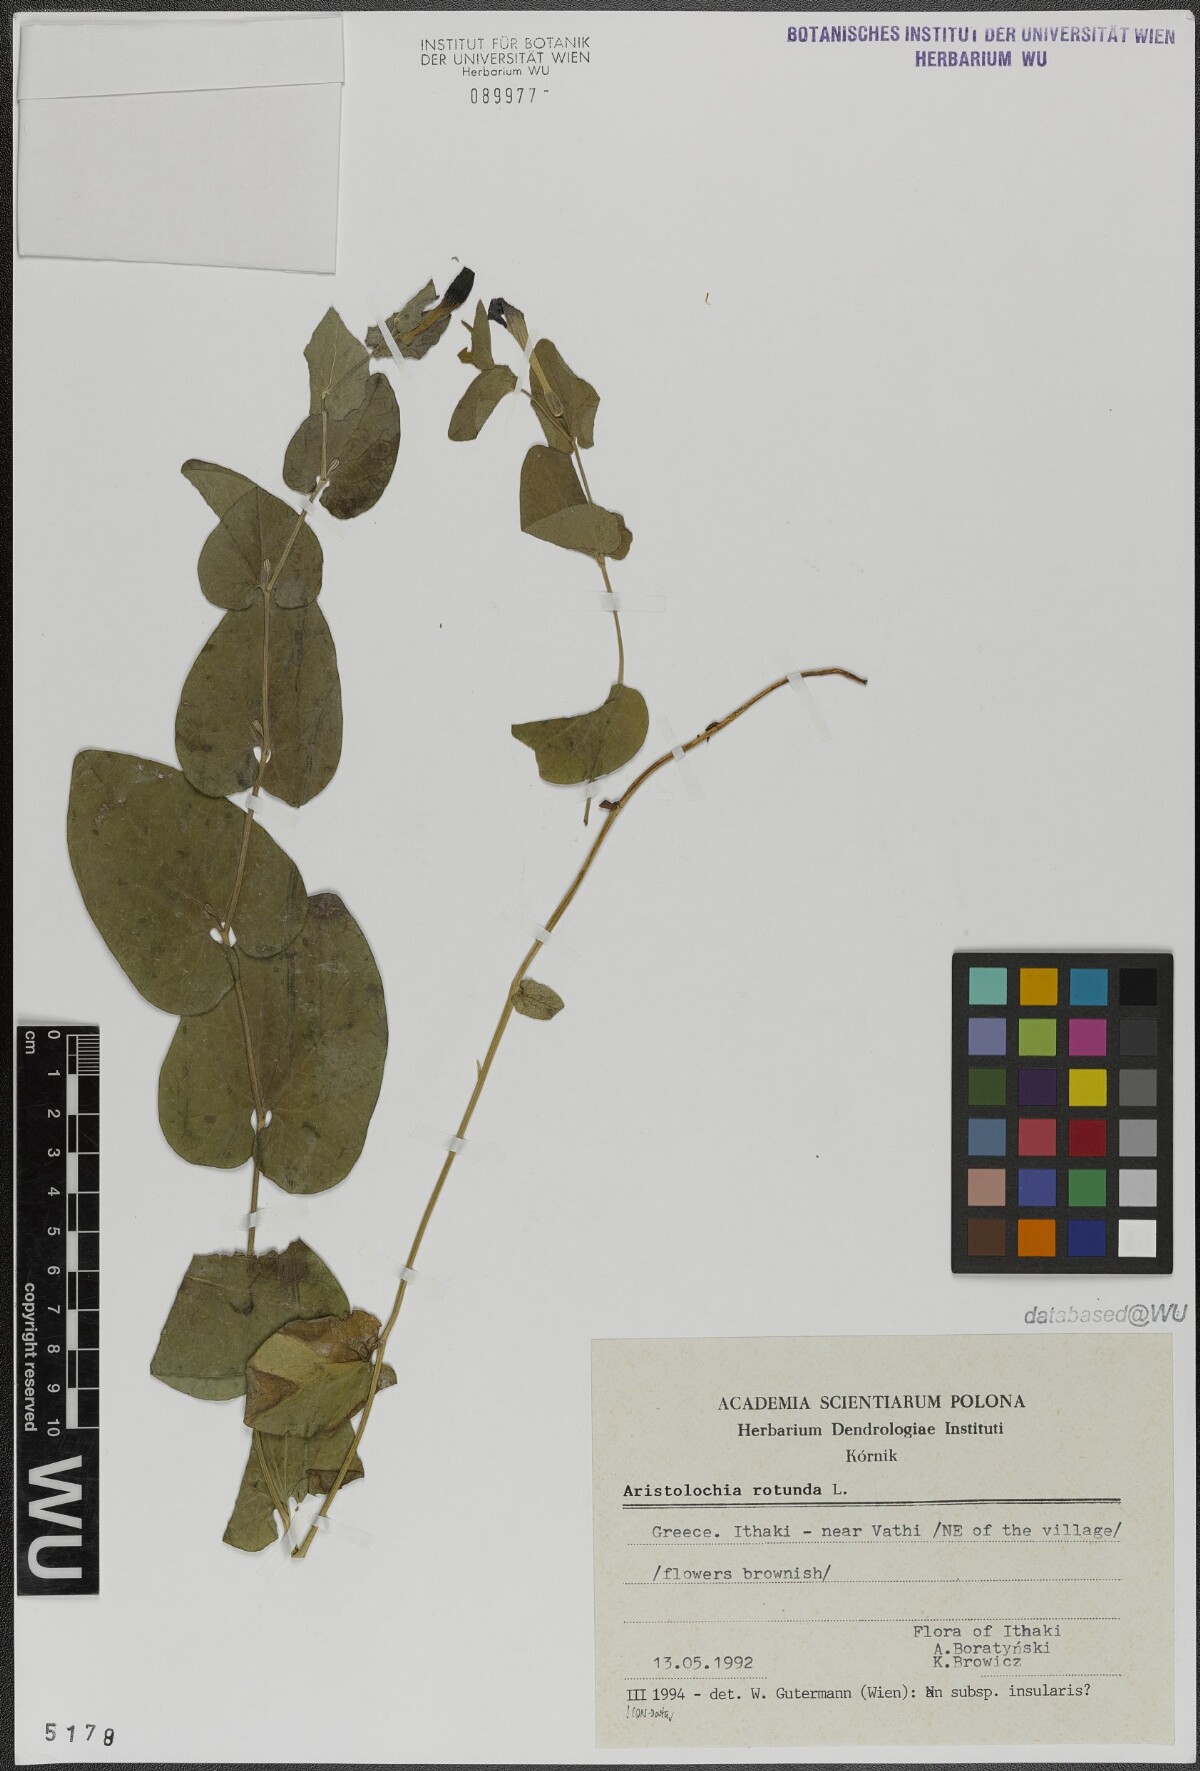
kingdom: Plantae
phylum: Tracheophyta
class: Magnoliopsida
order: Piperales
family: Aristolochiaceae
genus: Aristolochia
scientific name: Aristolochia rotunda
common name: Smearwort
